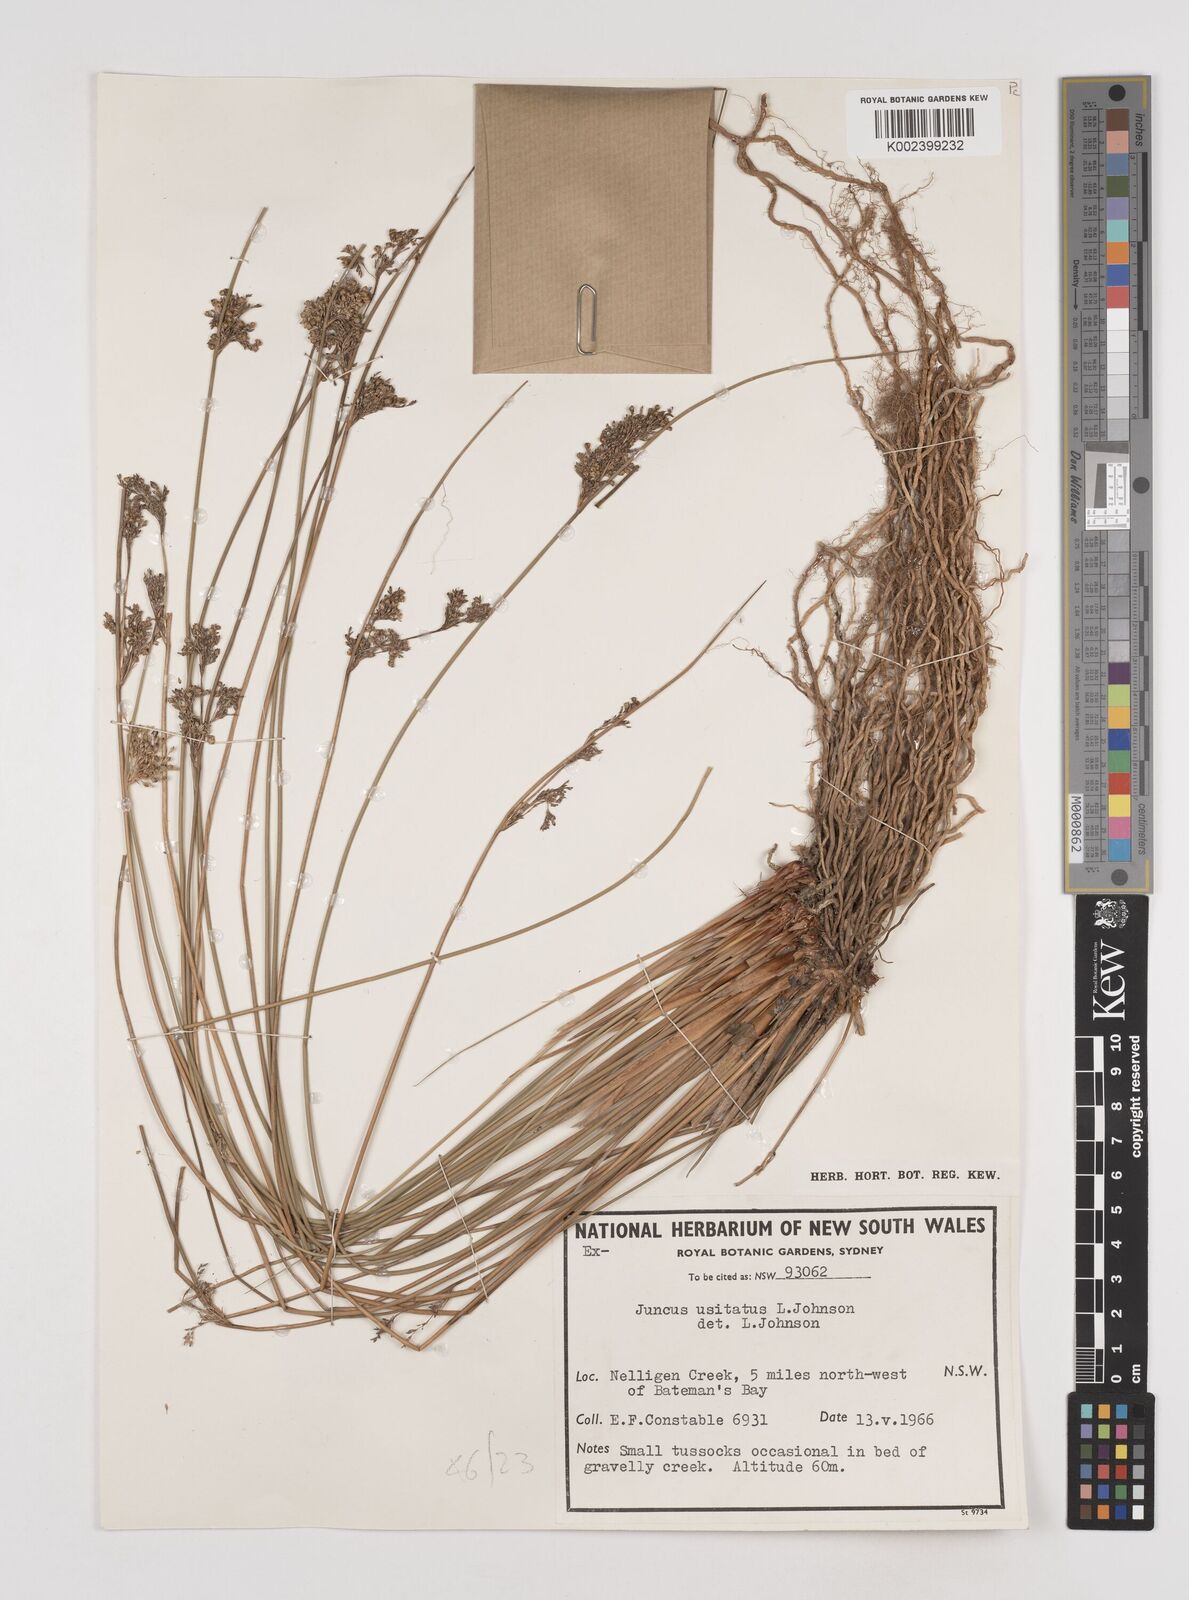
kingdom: Plantae
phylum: Tracheophyta
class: Liliopsida
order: Poales
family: Juncaceae
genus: Juncus
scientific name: Juncus usitatus
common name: Rush
